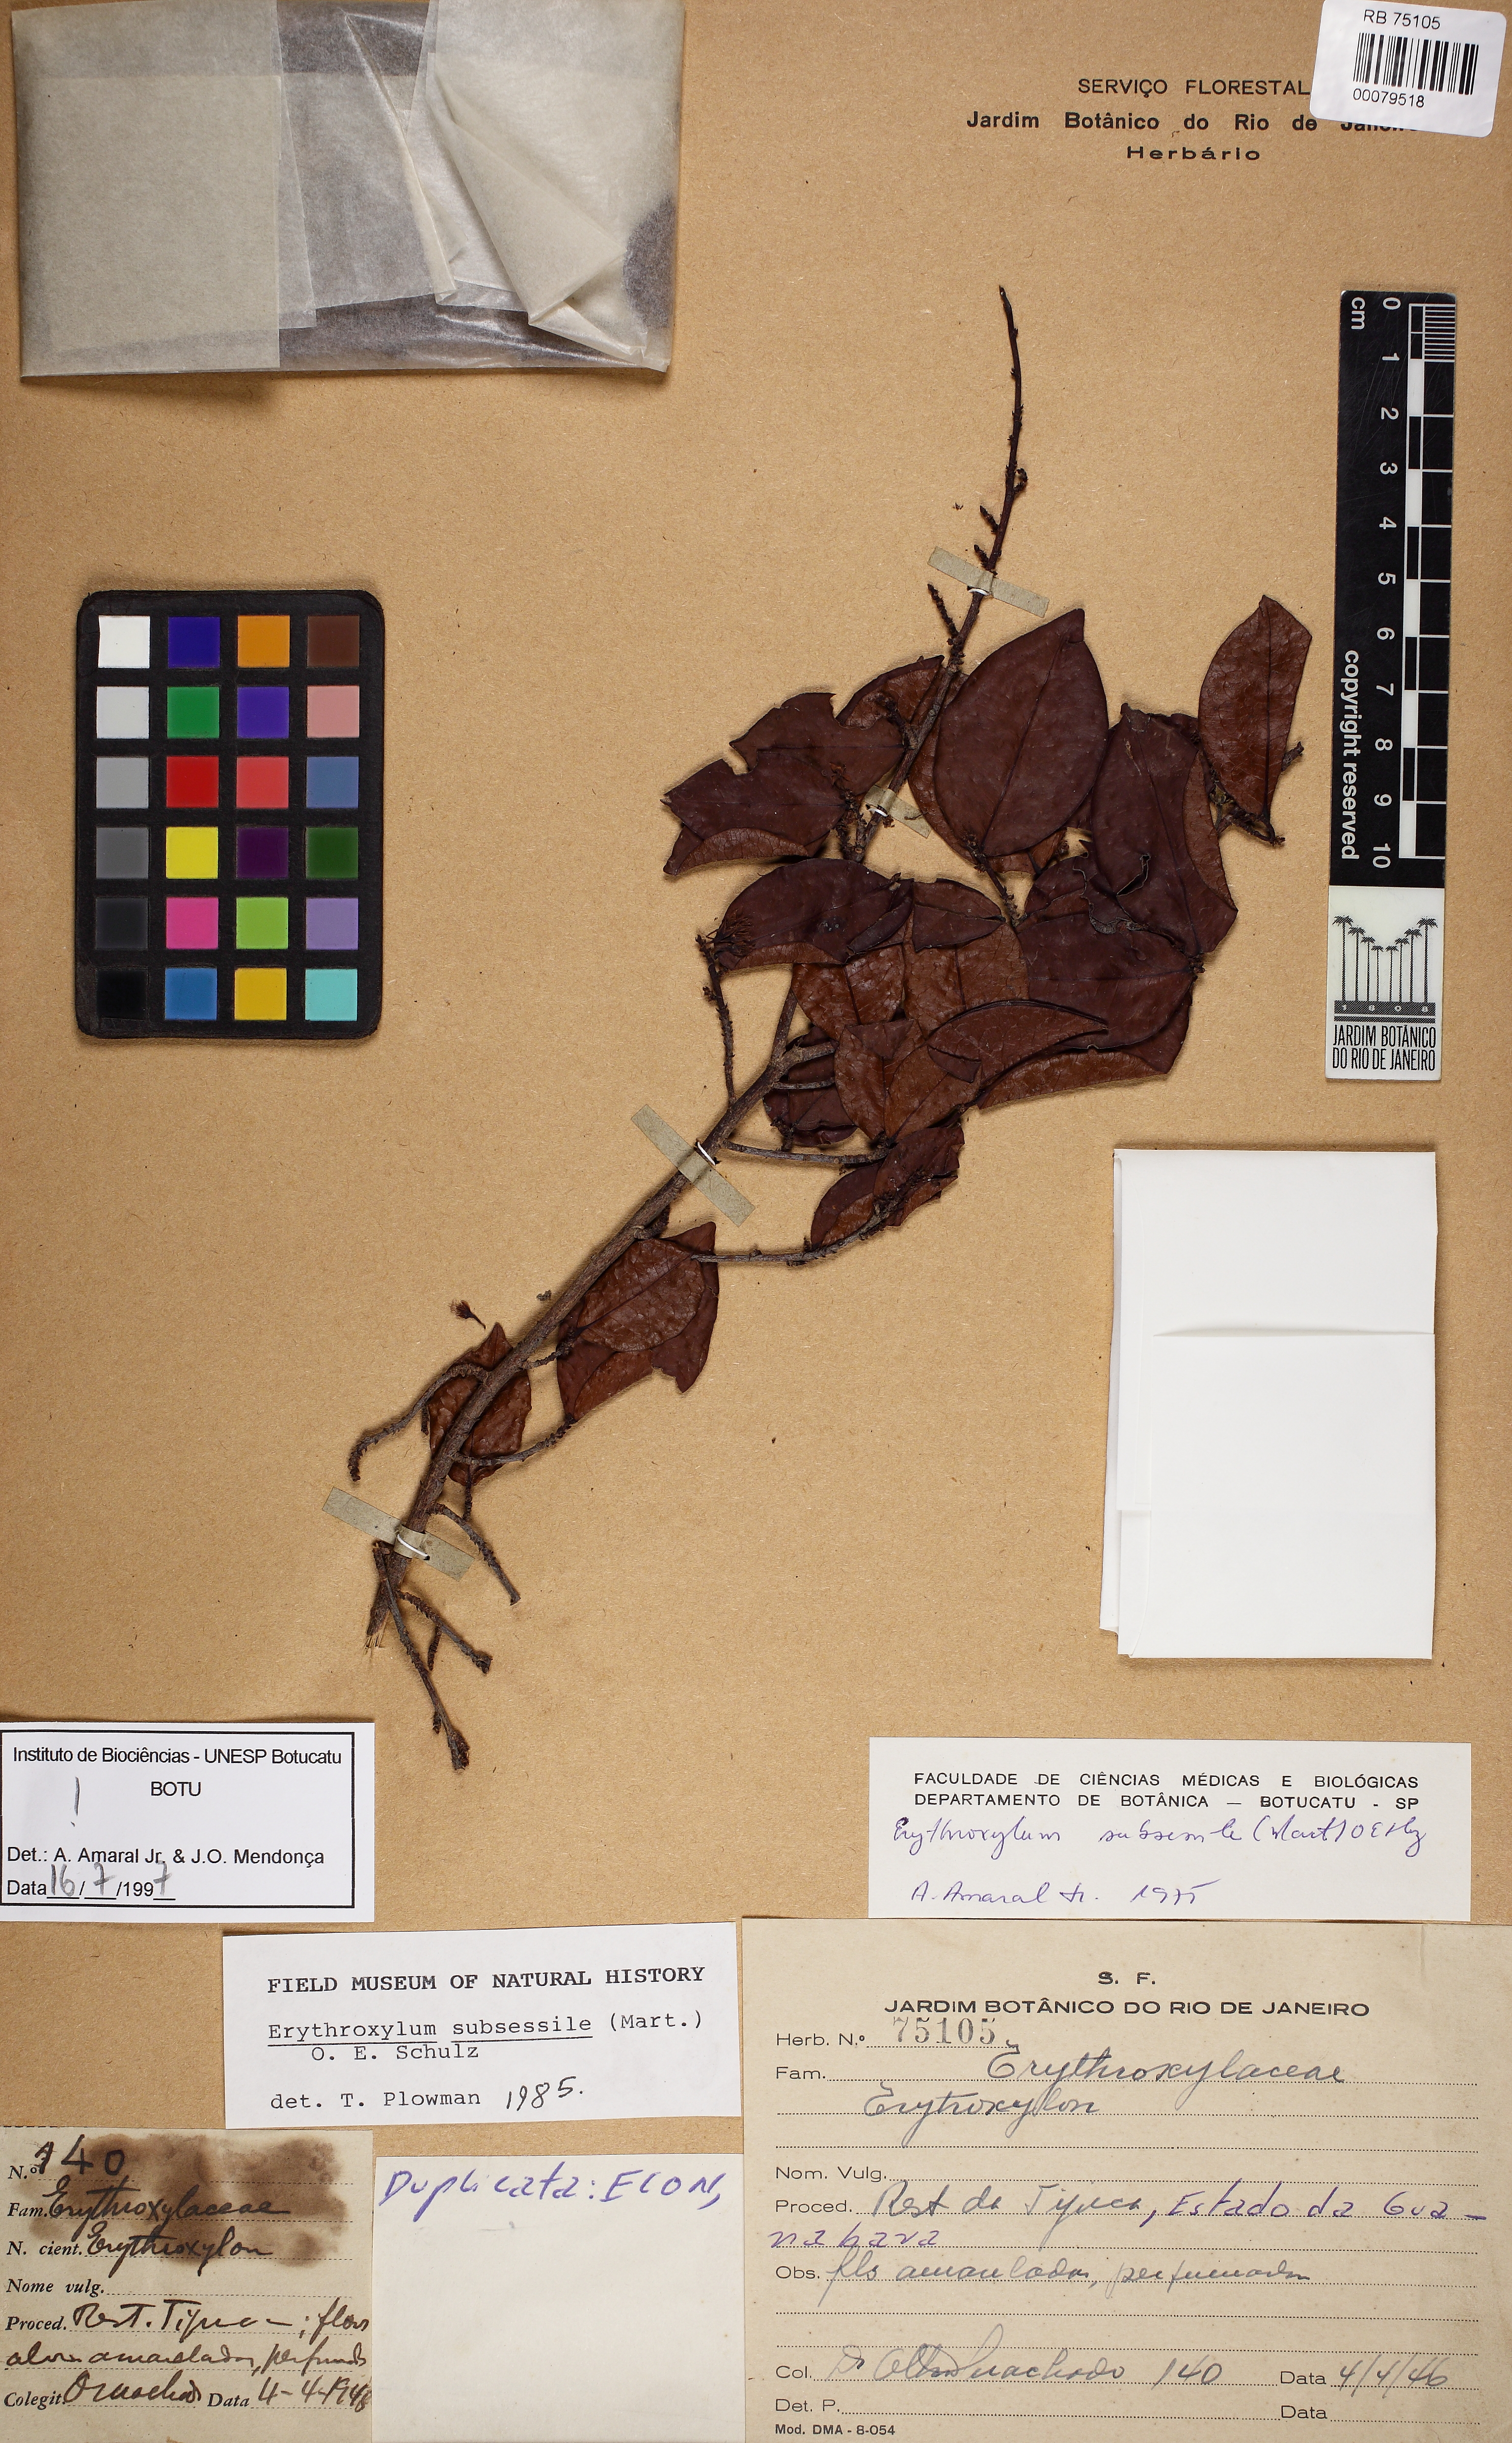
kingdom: Plantae
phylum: Tracheophyta
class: Magnoliopsida
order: Malpighiales
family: Erythroxylaceae
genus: Erythroxylum
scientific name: Erythroxylum macrocalyx
